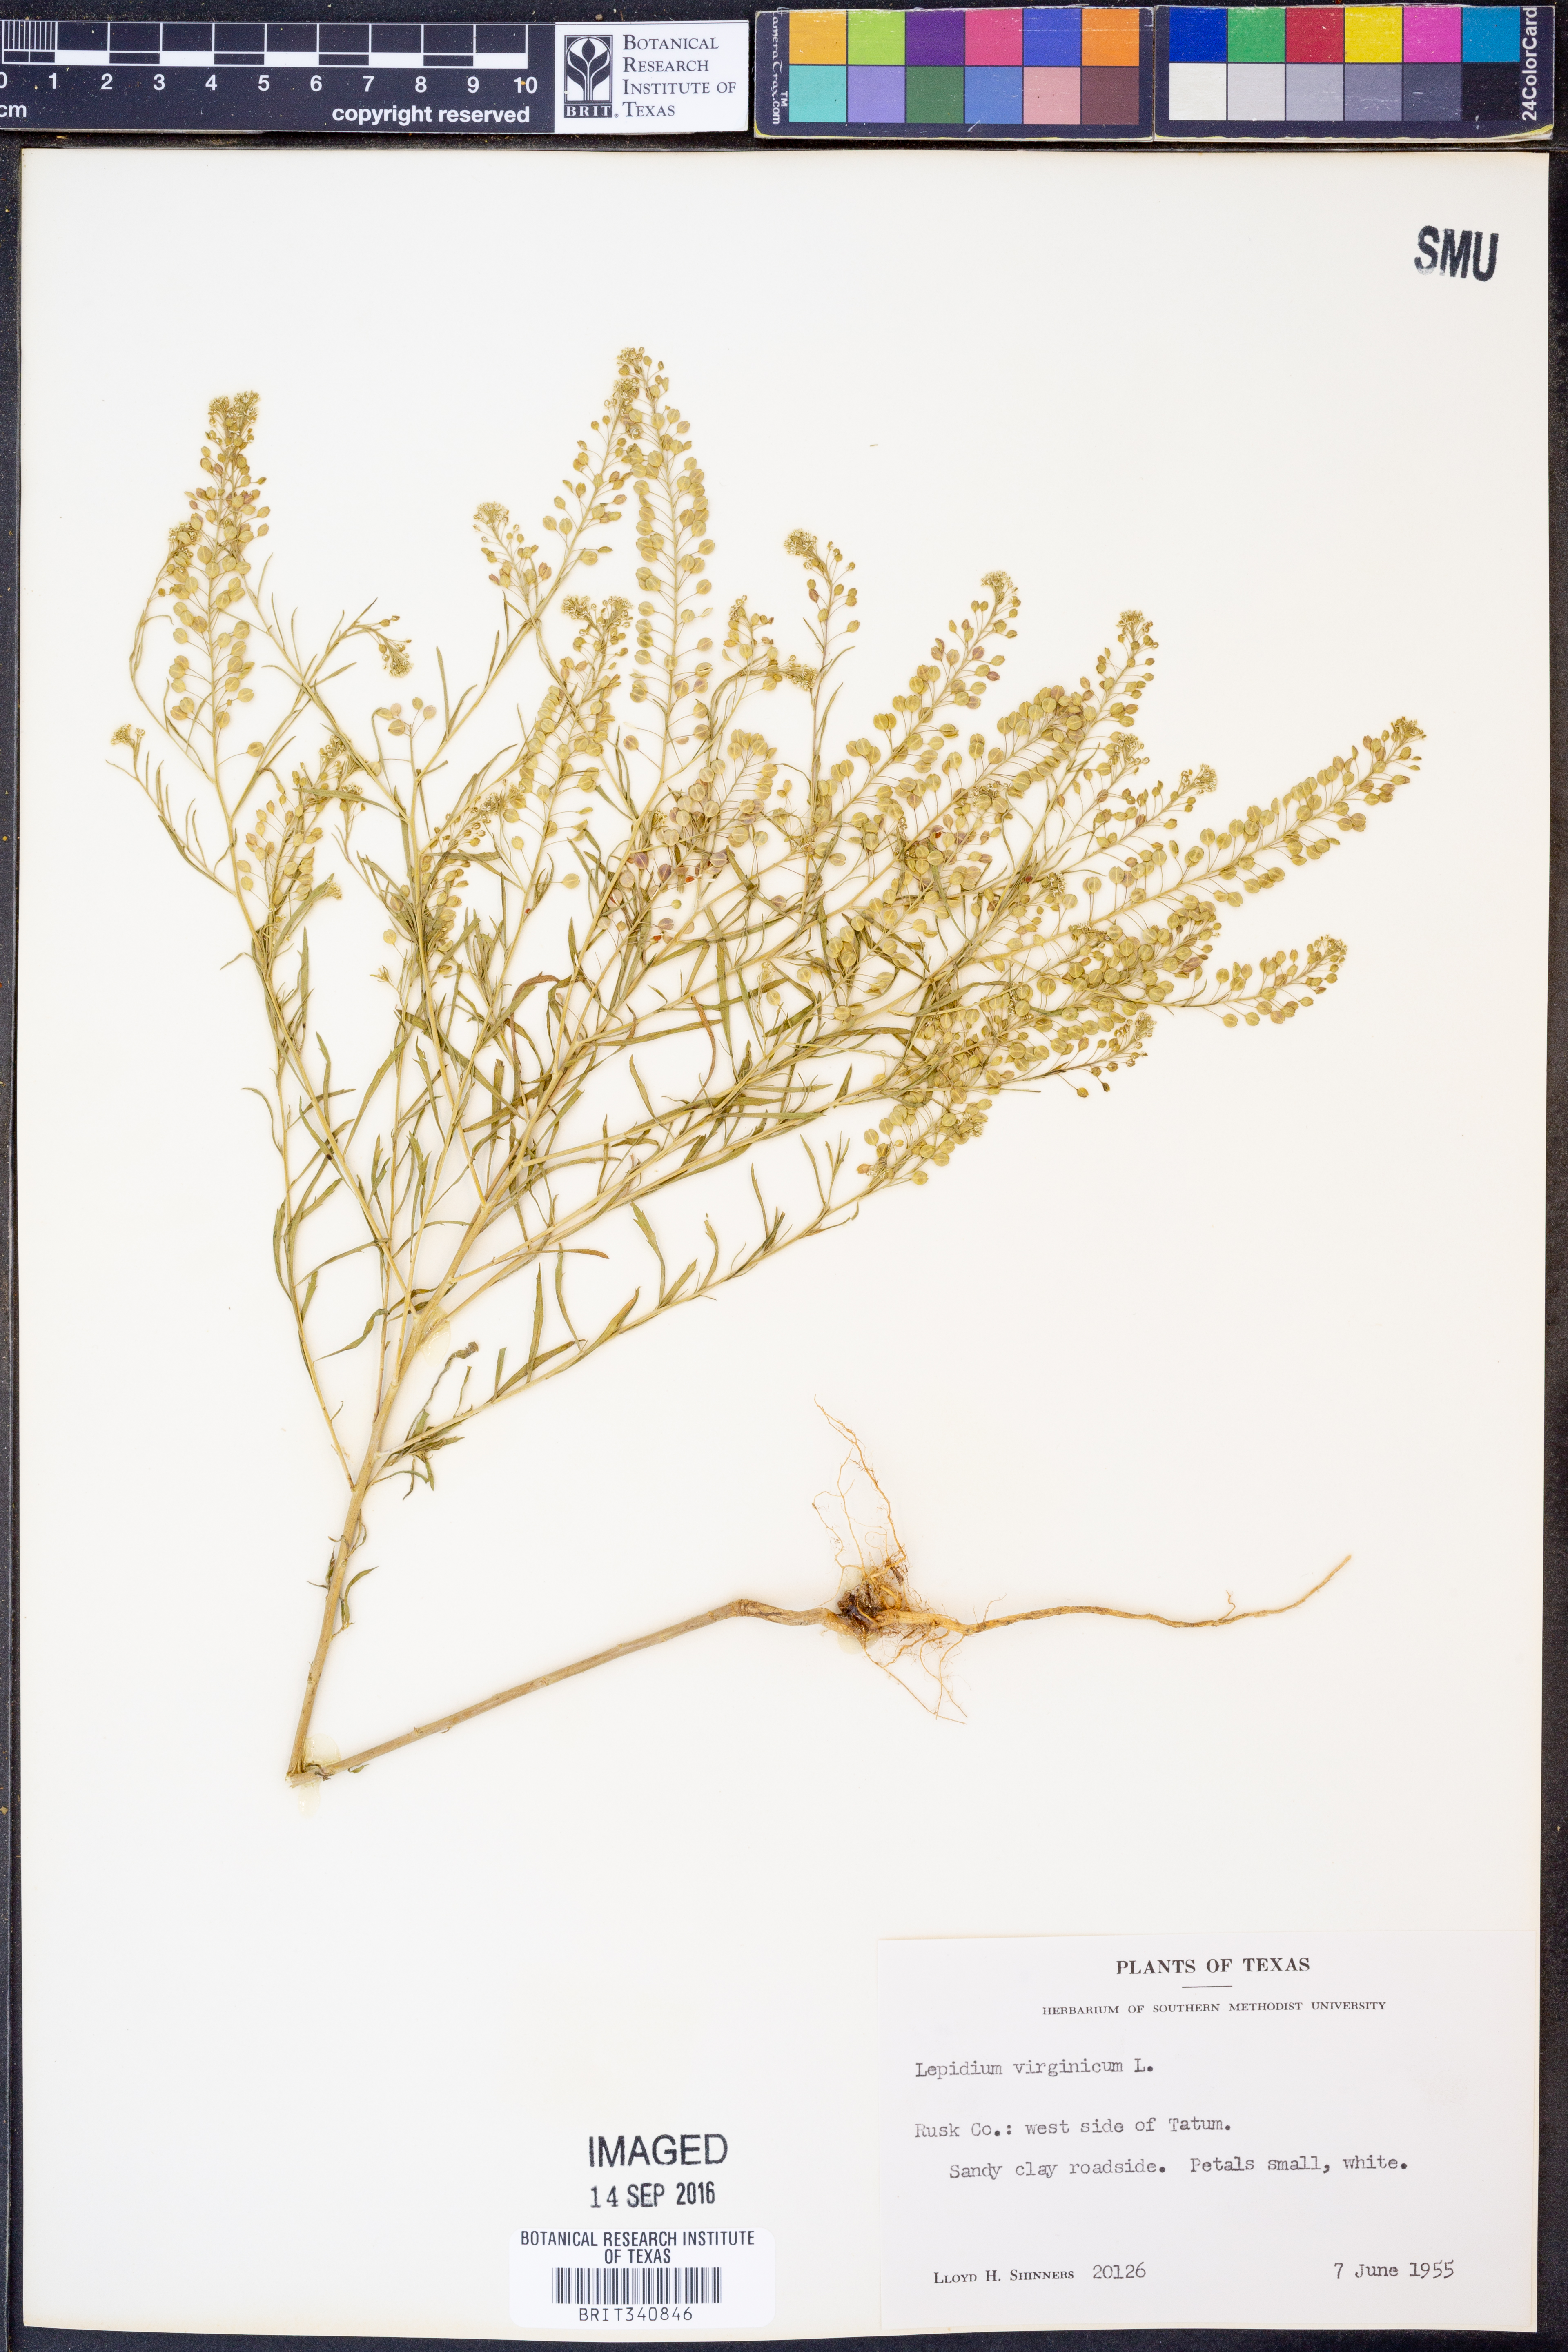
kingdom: Plantae
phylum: Tracheophyta
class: Magnoliopsida
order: Brassicales
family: Brassicaceae
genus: Lepidium
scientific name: Lepidium virginicum
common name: Least pepperwort
